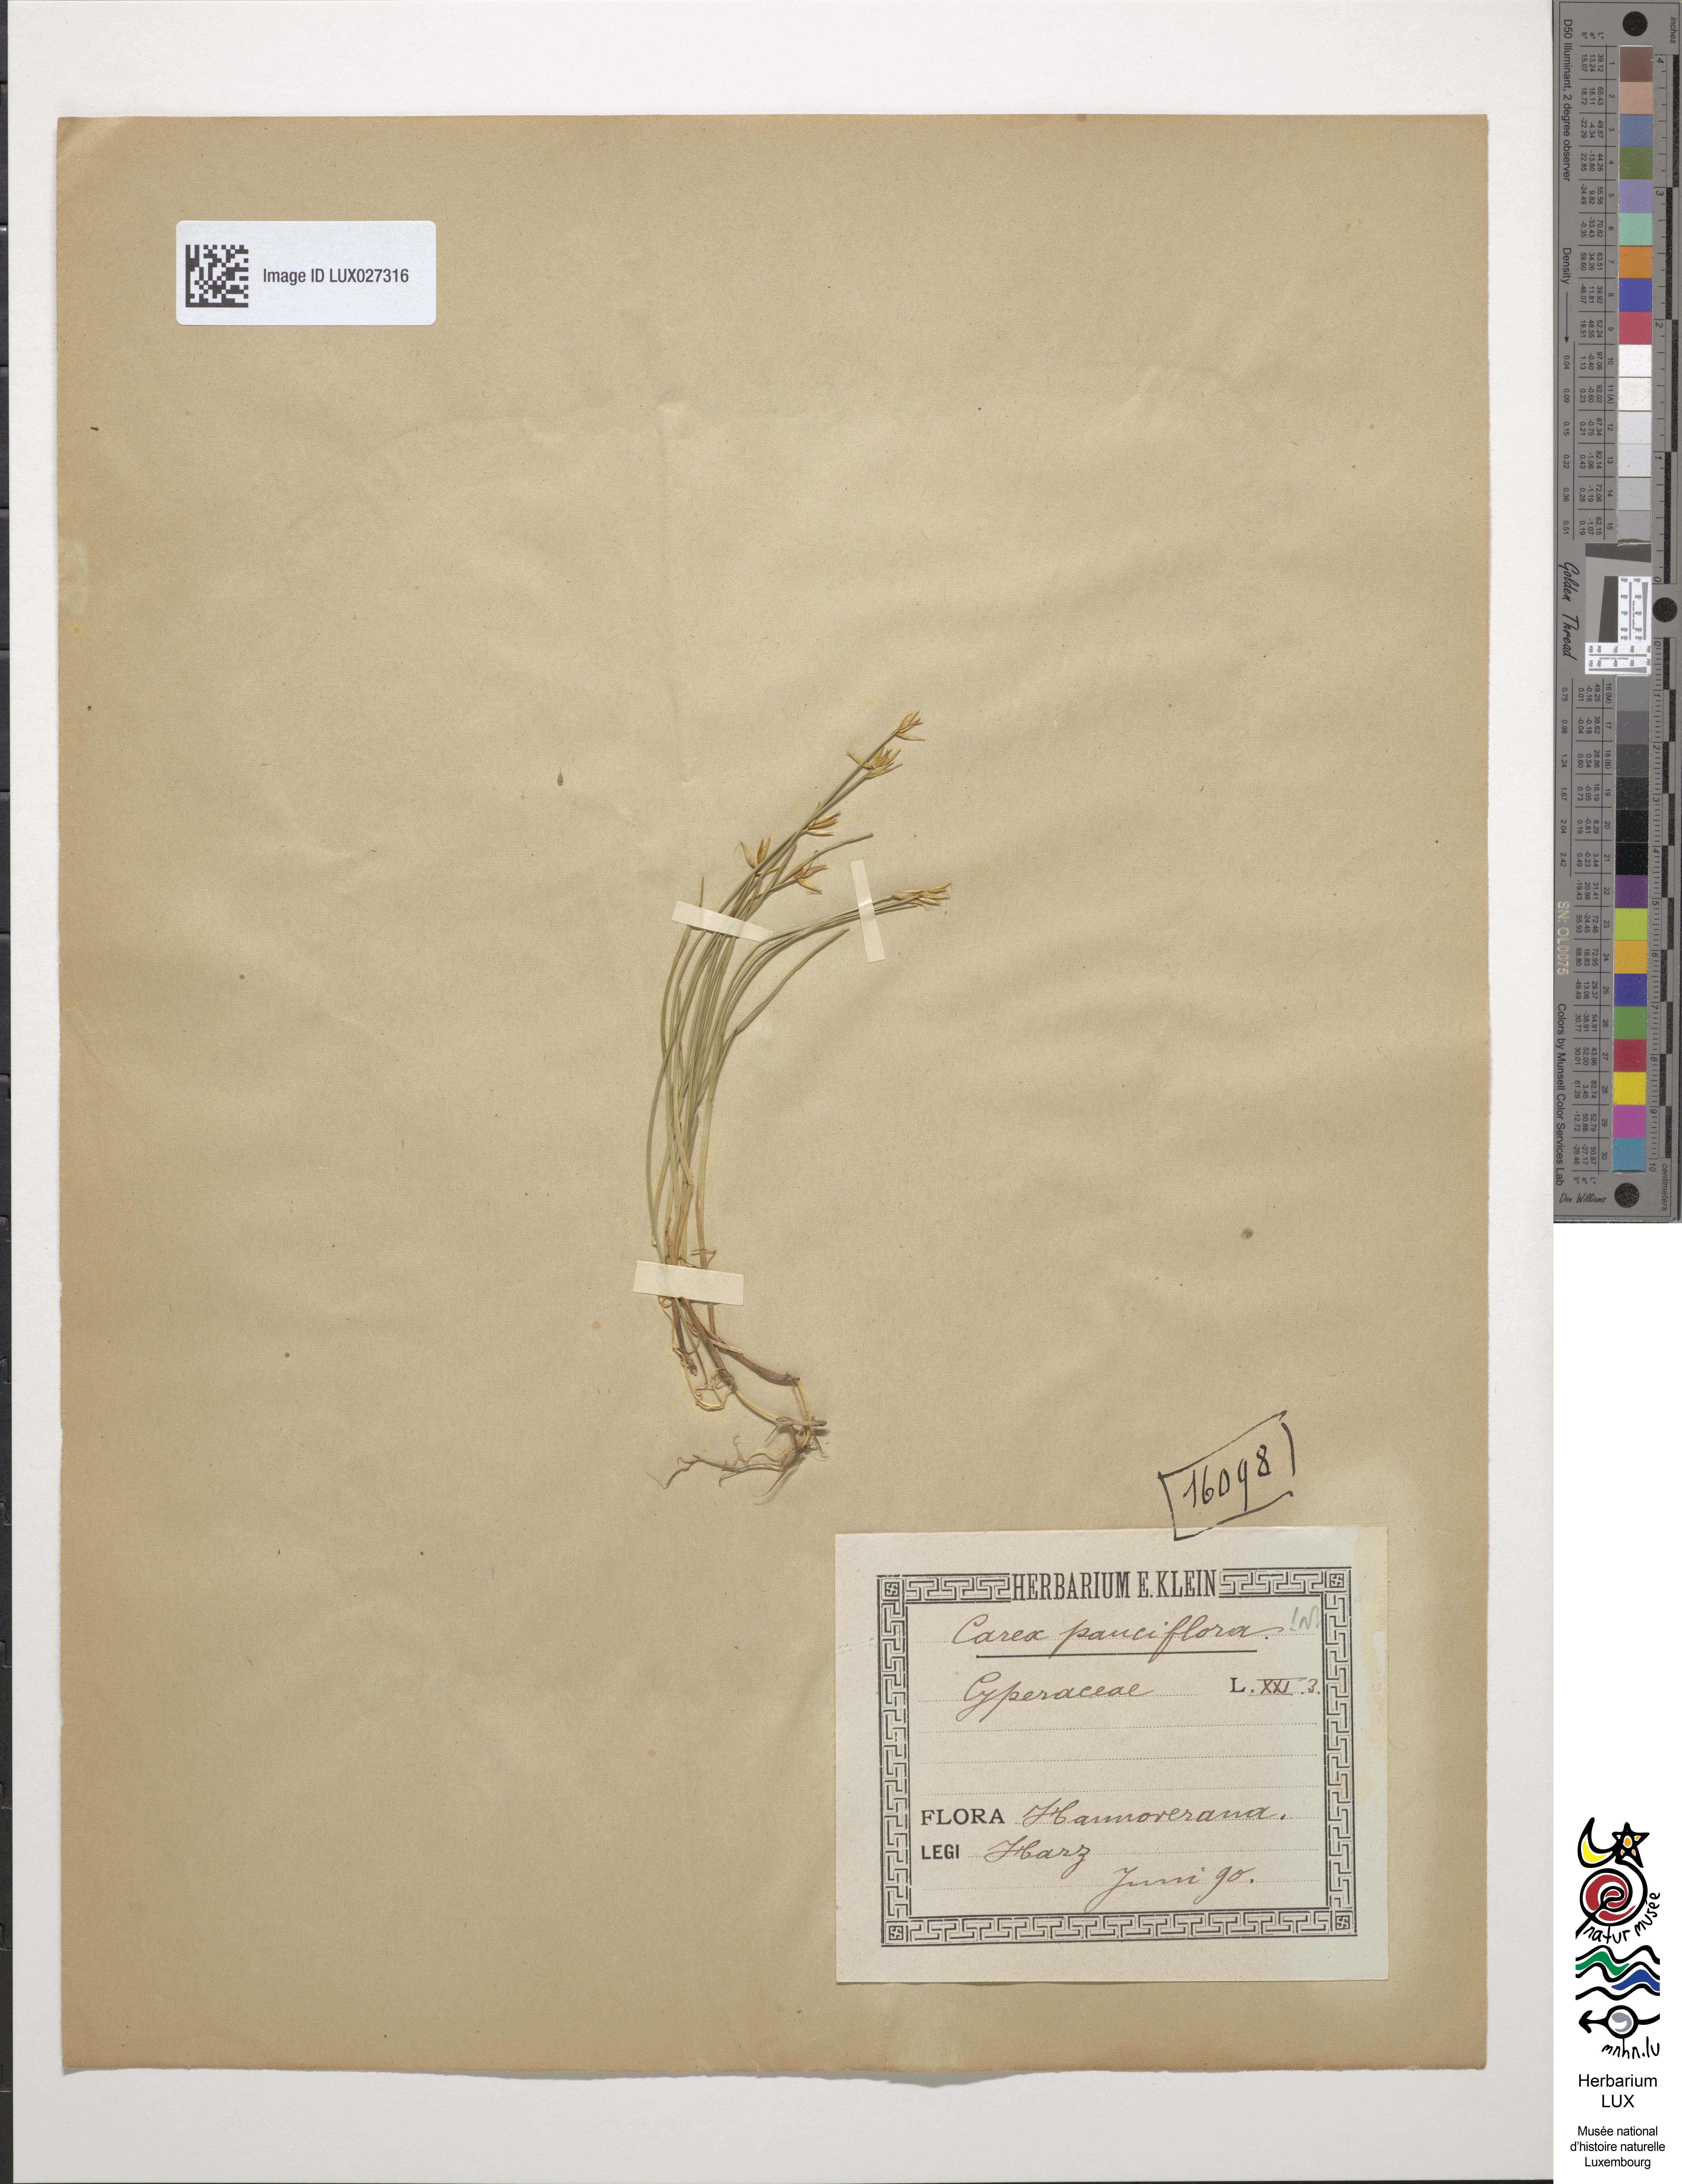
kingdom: Plantae
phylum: Tracheophyta
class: Liliopsida
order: Poales
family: Cyperaceae
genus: Carex
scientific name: Carex pauciflora
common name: Few-flowered sedge
